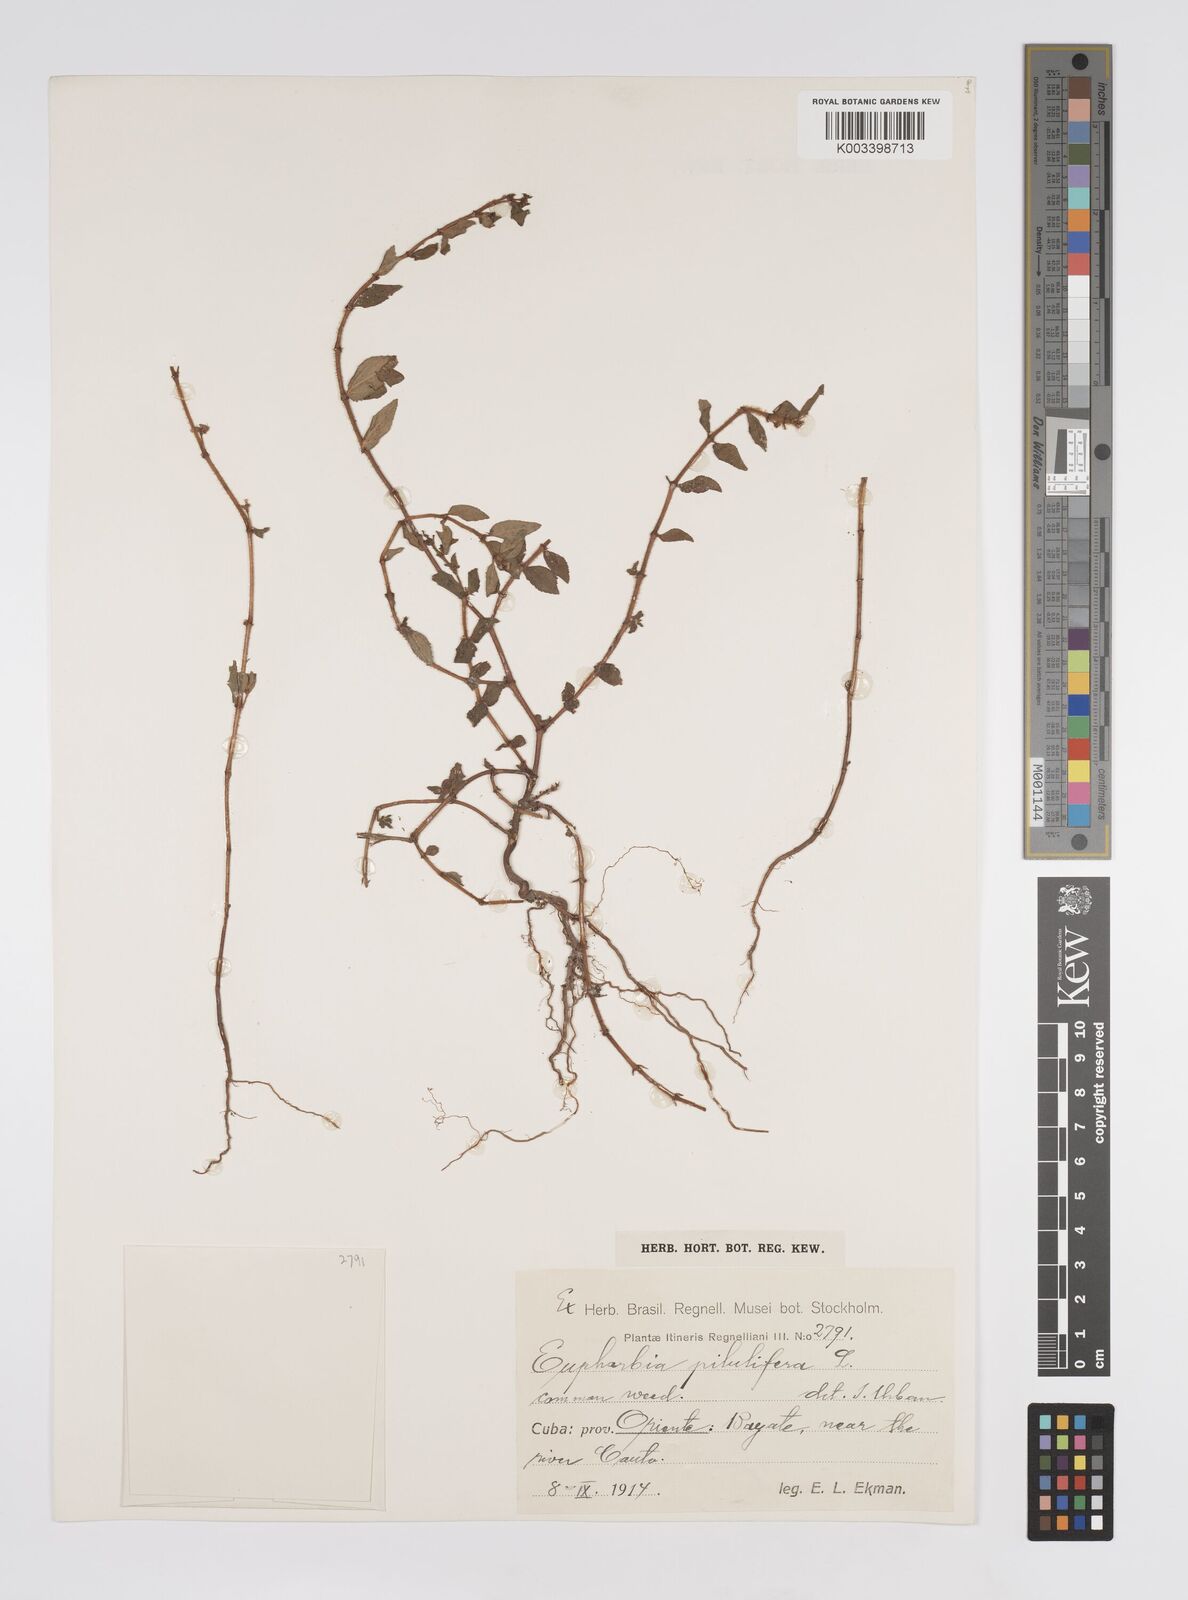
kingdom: Plantae
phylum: Tracheophyta
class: Magnoliopsida
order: Malpighiales
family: Euphorbiaceae
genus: Euphorbia
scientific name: Euphorbia hirta
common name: Pillpod sandmat
